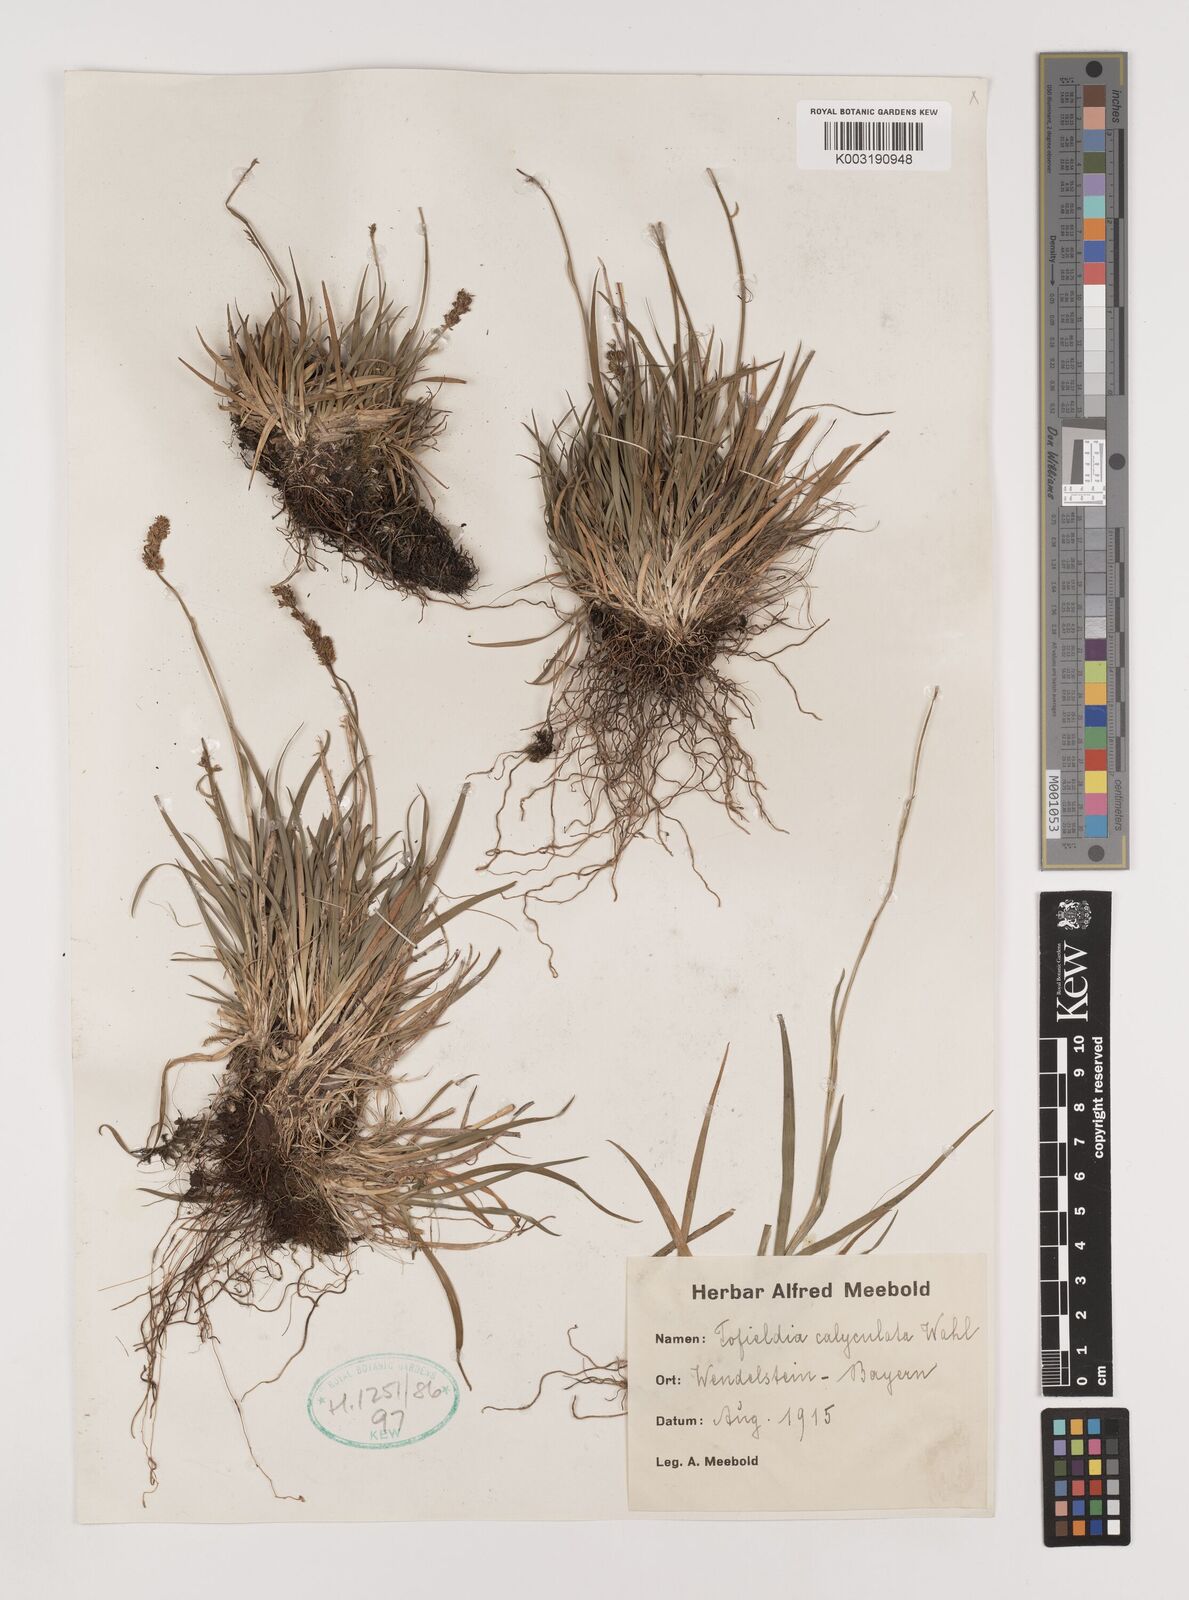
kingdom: Plantae
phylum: Tracheophyta
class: Liliopsida
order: Alismatales
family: Tofieldiaceae
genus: Tofieldia
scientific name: Tofieldia calyculata
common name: German-asphodel
